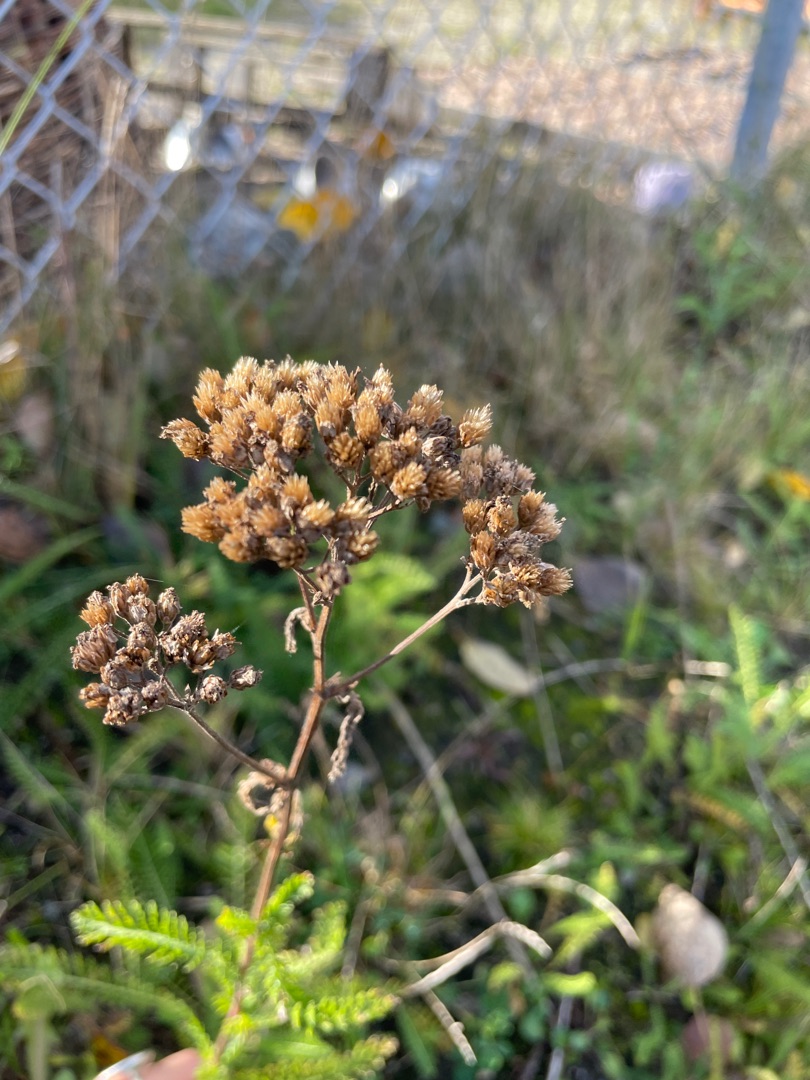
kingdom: Plantae
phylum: Tracheophyta
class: Magnoliopsida
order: Asterales
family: Asteraceae
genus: Achillea
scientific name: Achillea millefolium
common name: Almindelig røllike
